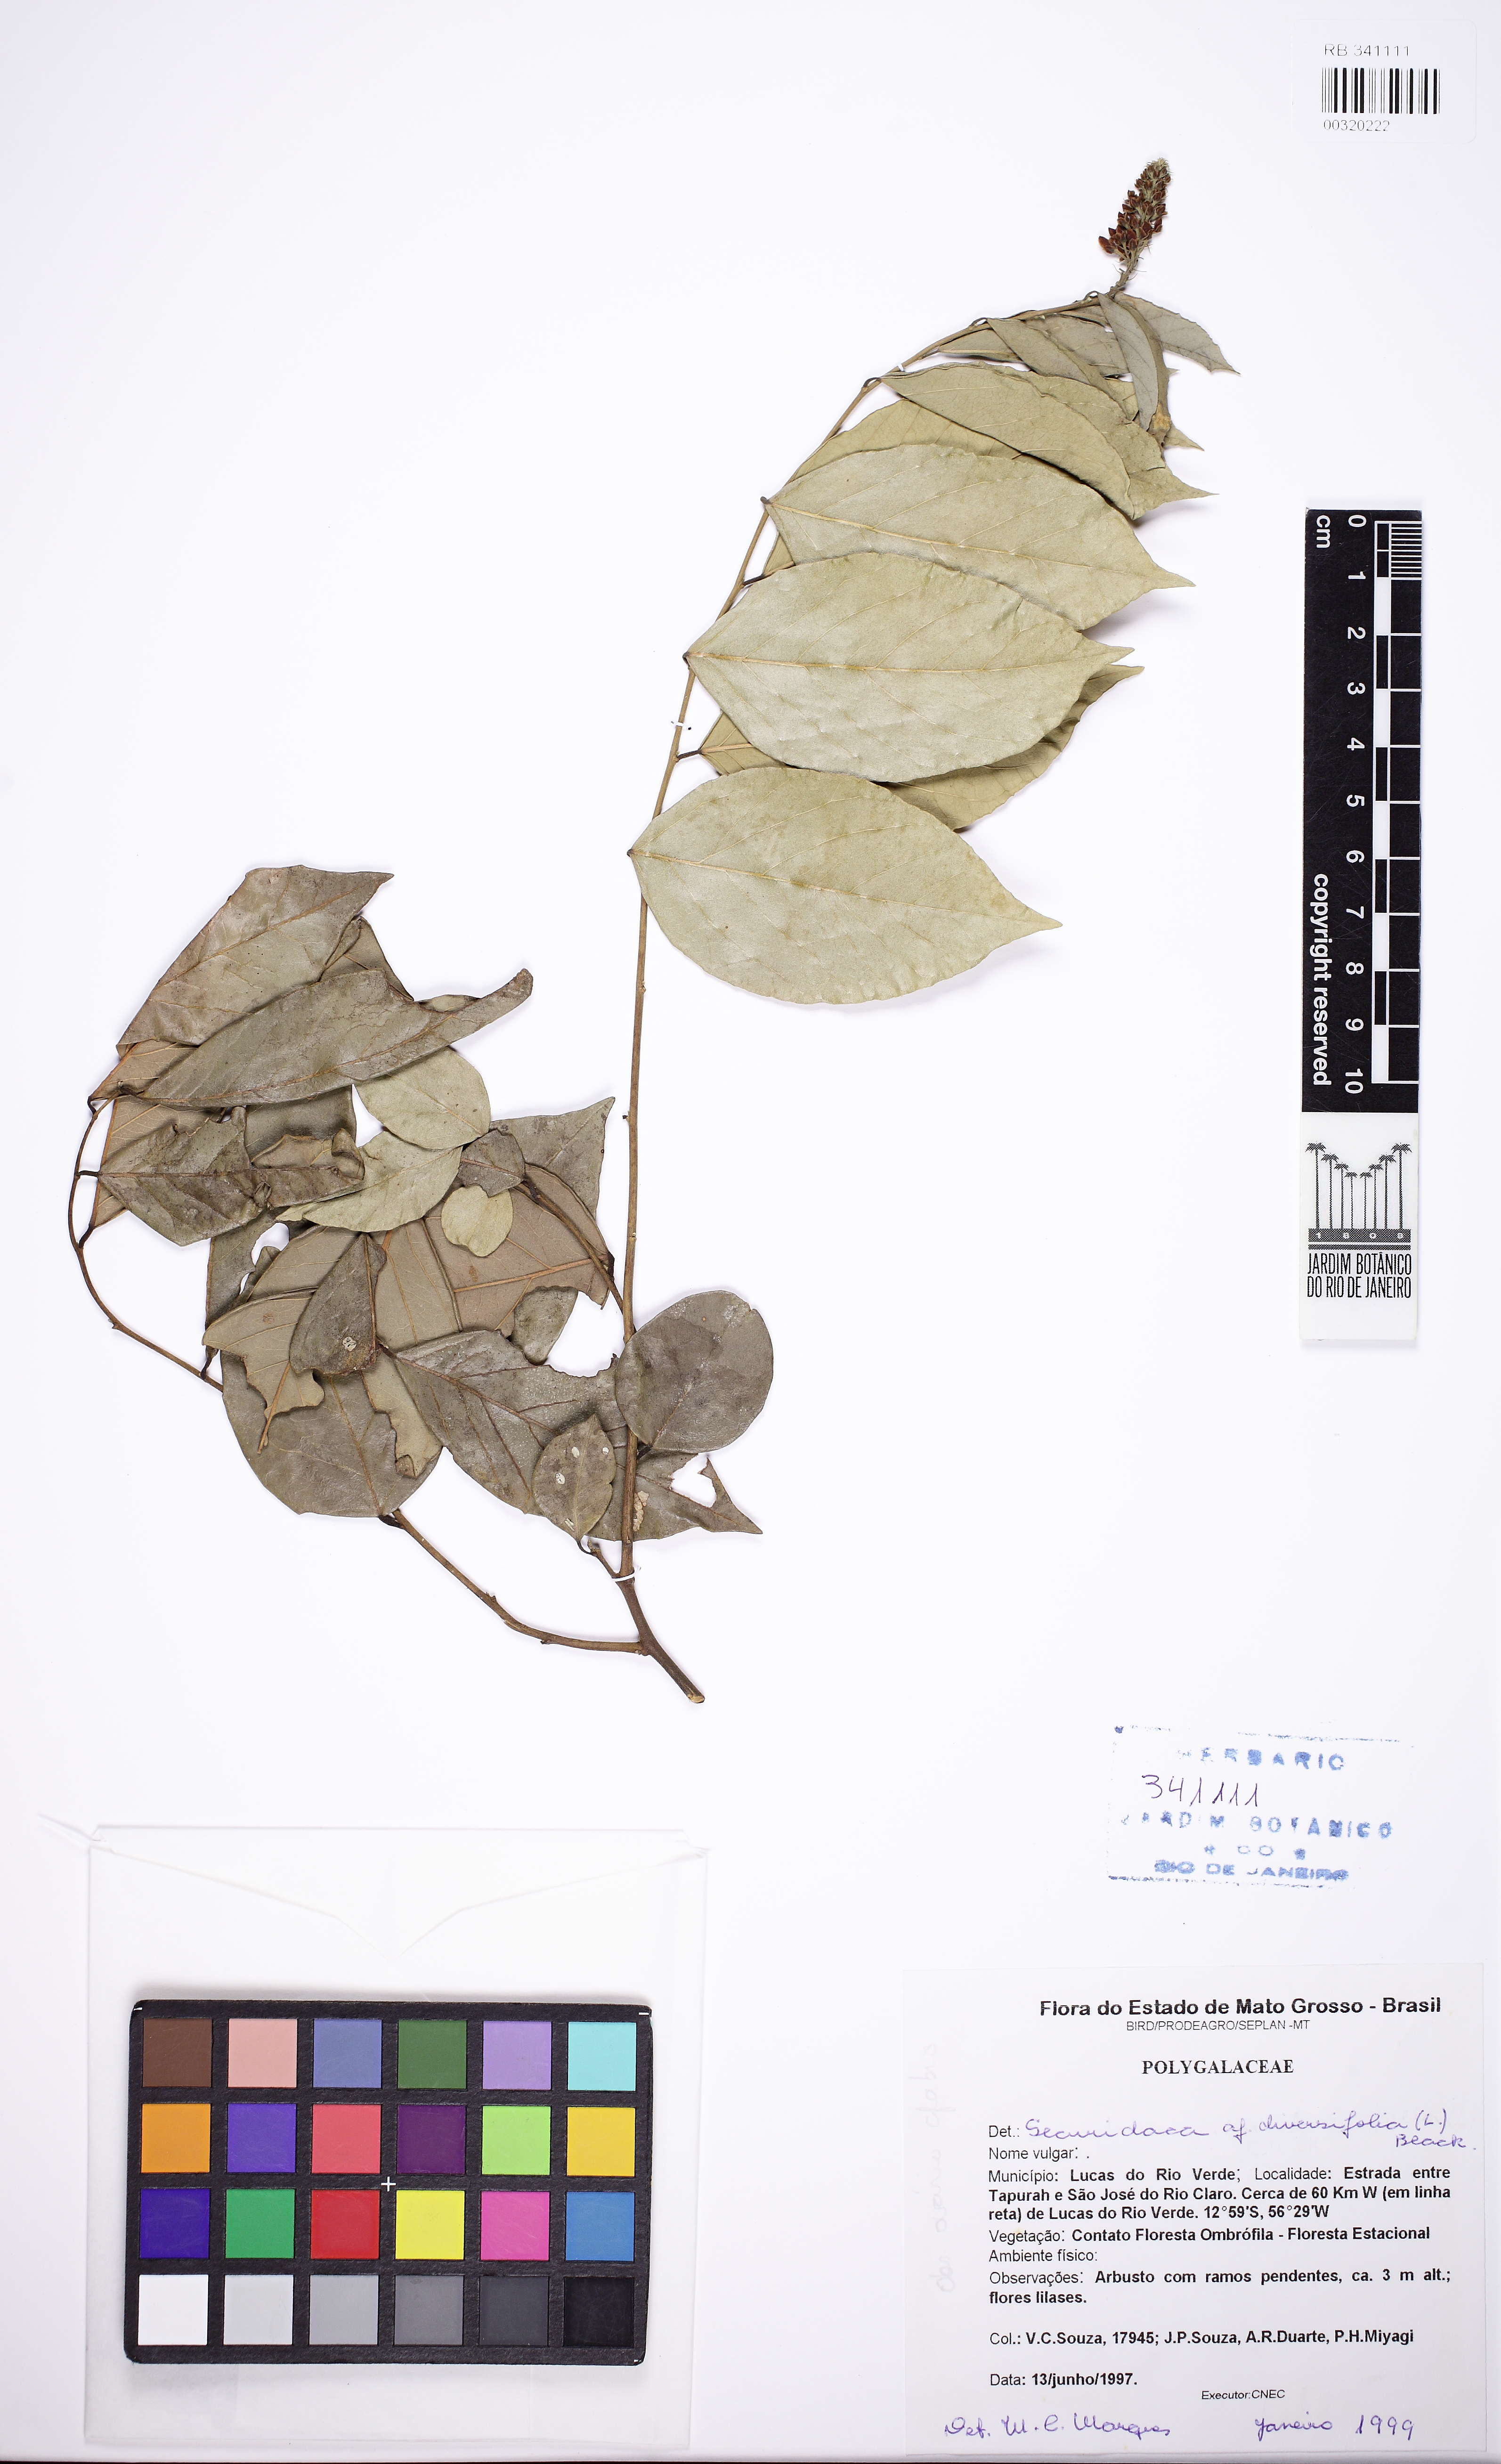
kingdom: Plantae
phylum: Tracheophyta
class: Magnoliopsida
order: Fabales
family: Polygalaceae
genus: Securidaca
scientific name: Securidaca diversifolia
